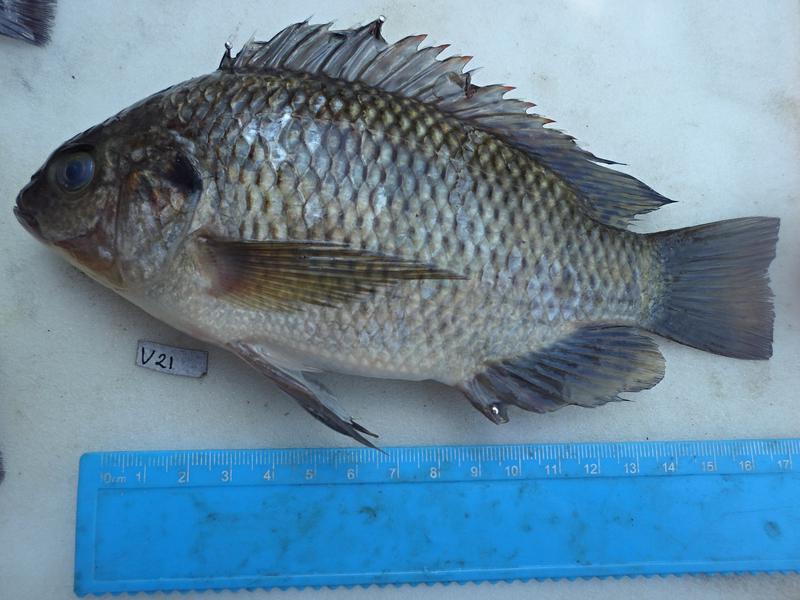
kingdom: Animalia
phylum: Chordata
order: Perciformes
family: Cichlidae
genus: Oreochromis
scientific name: Oreochromis variabilis
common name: Victoria tilapia
